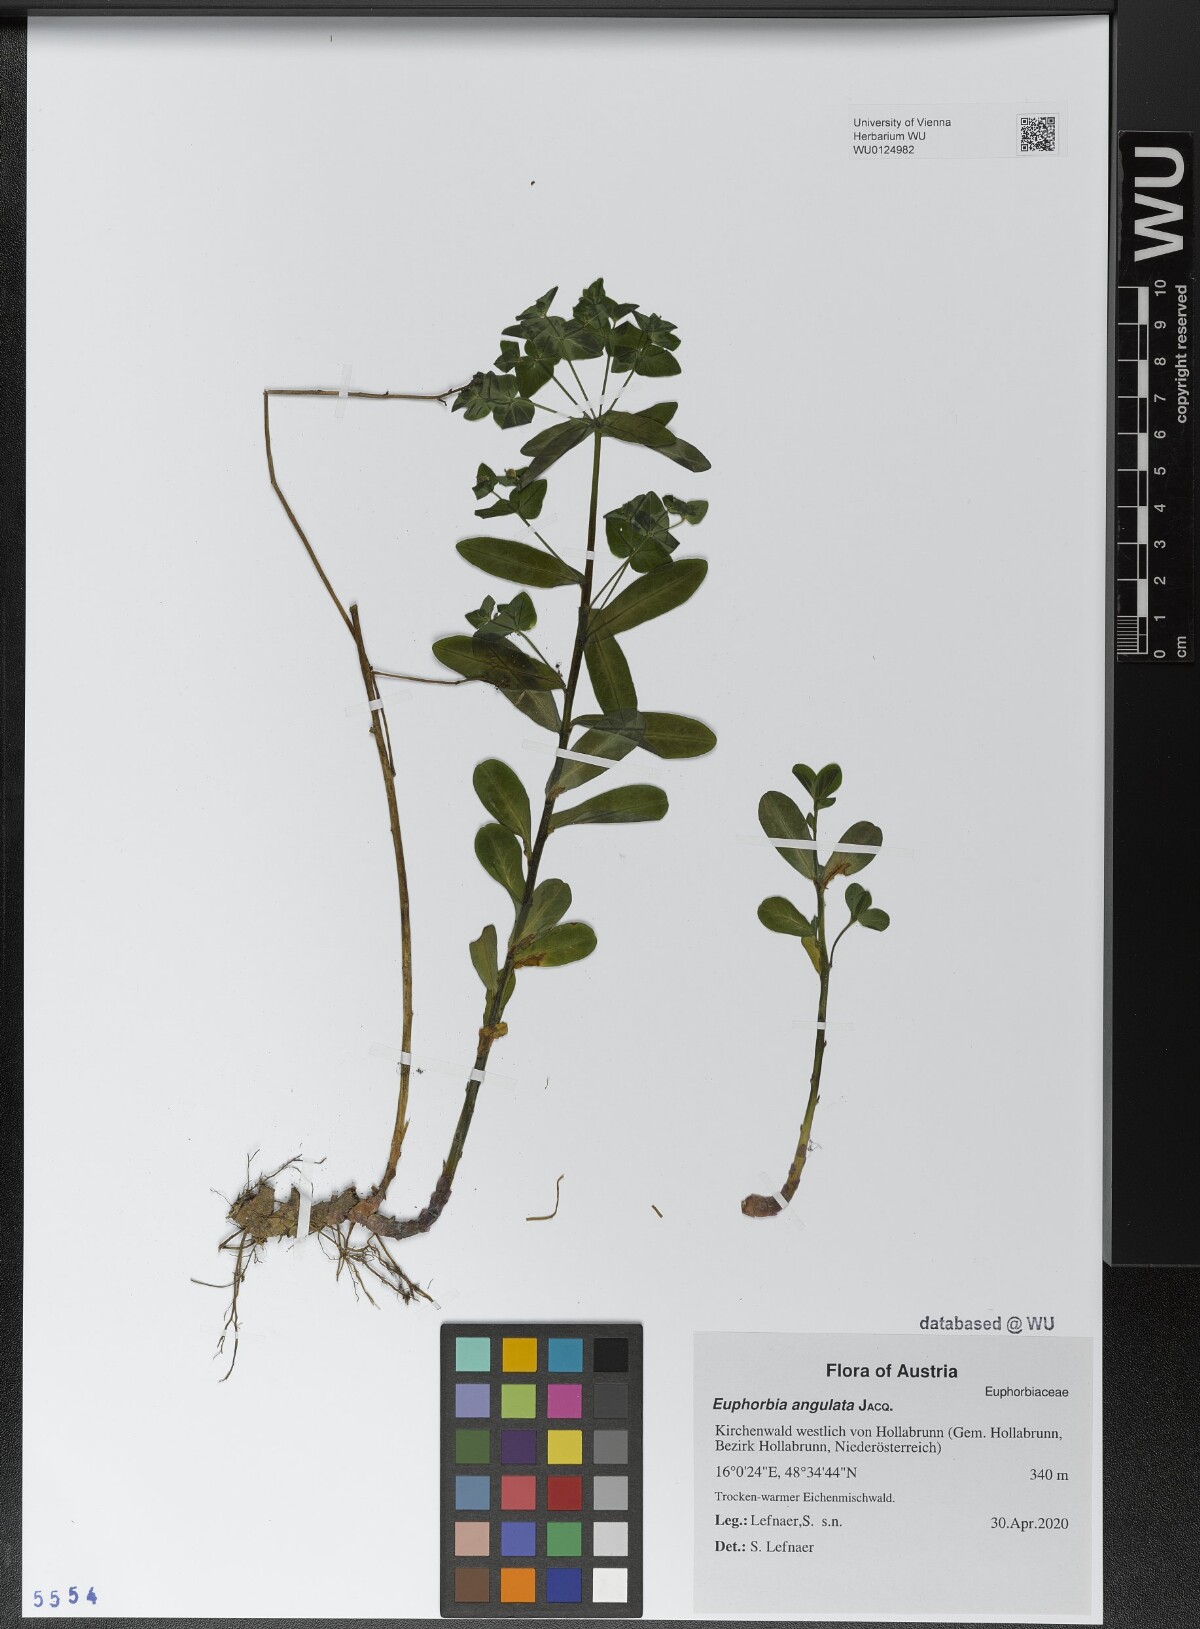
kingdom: Plantae
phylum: Tracheophyta
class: Magnoliopsida
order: Malpighiales
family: Euphorbiaceae
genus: Euphorbia
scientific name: Euphorbia angulata
